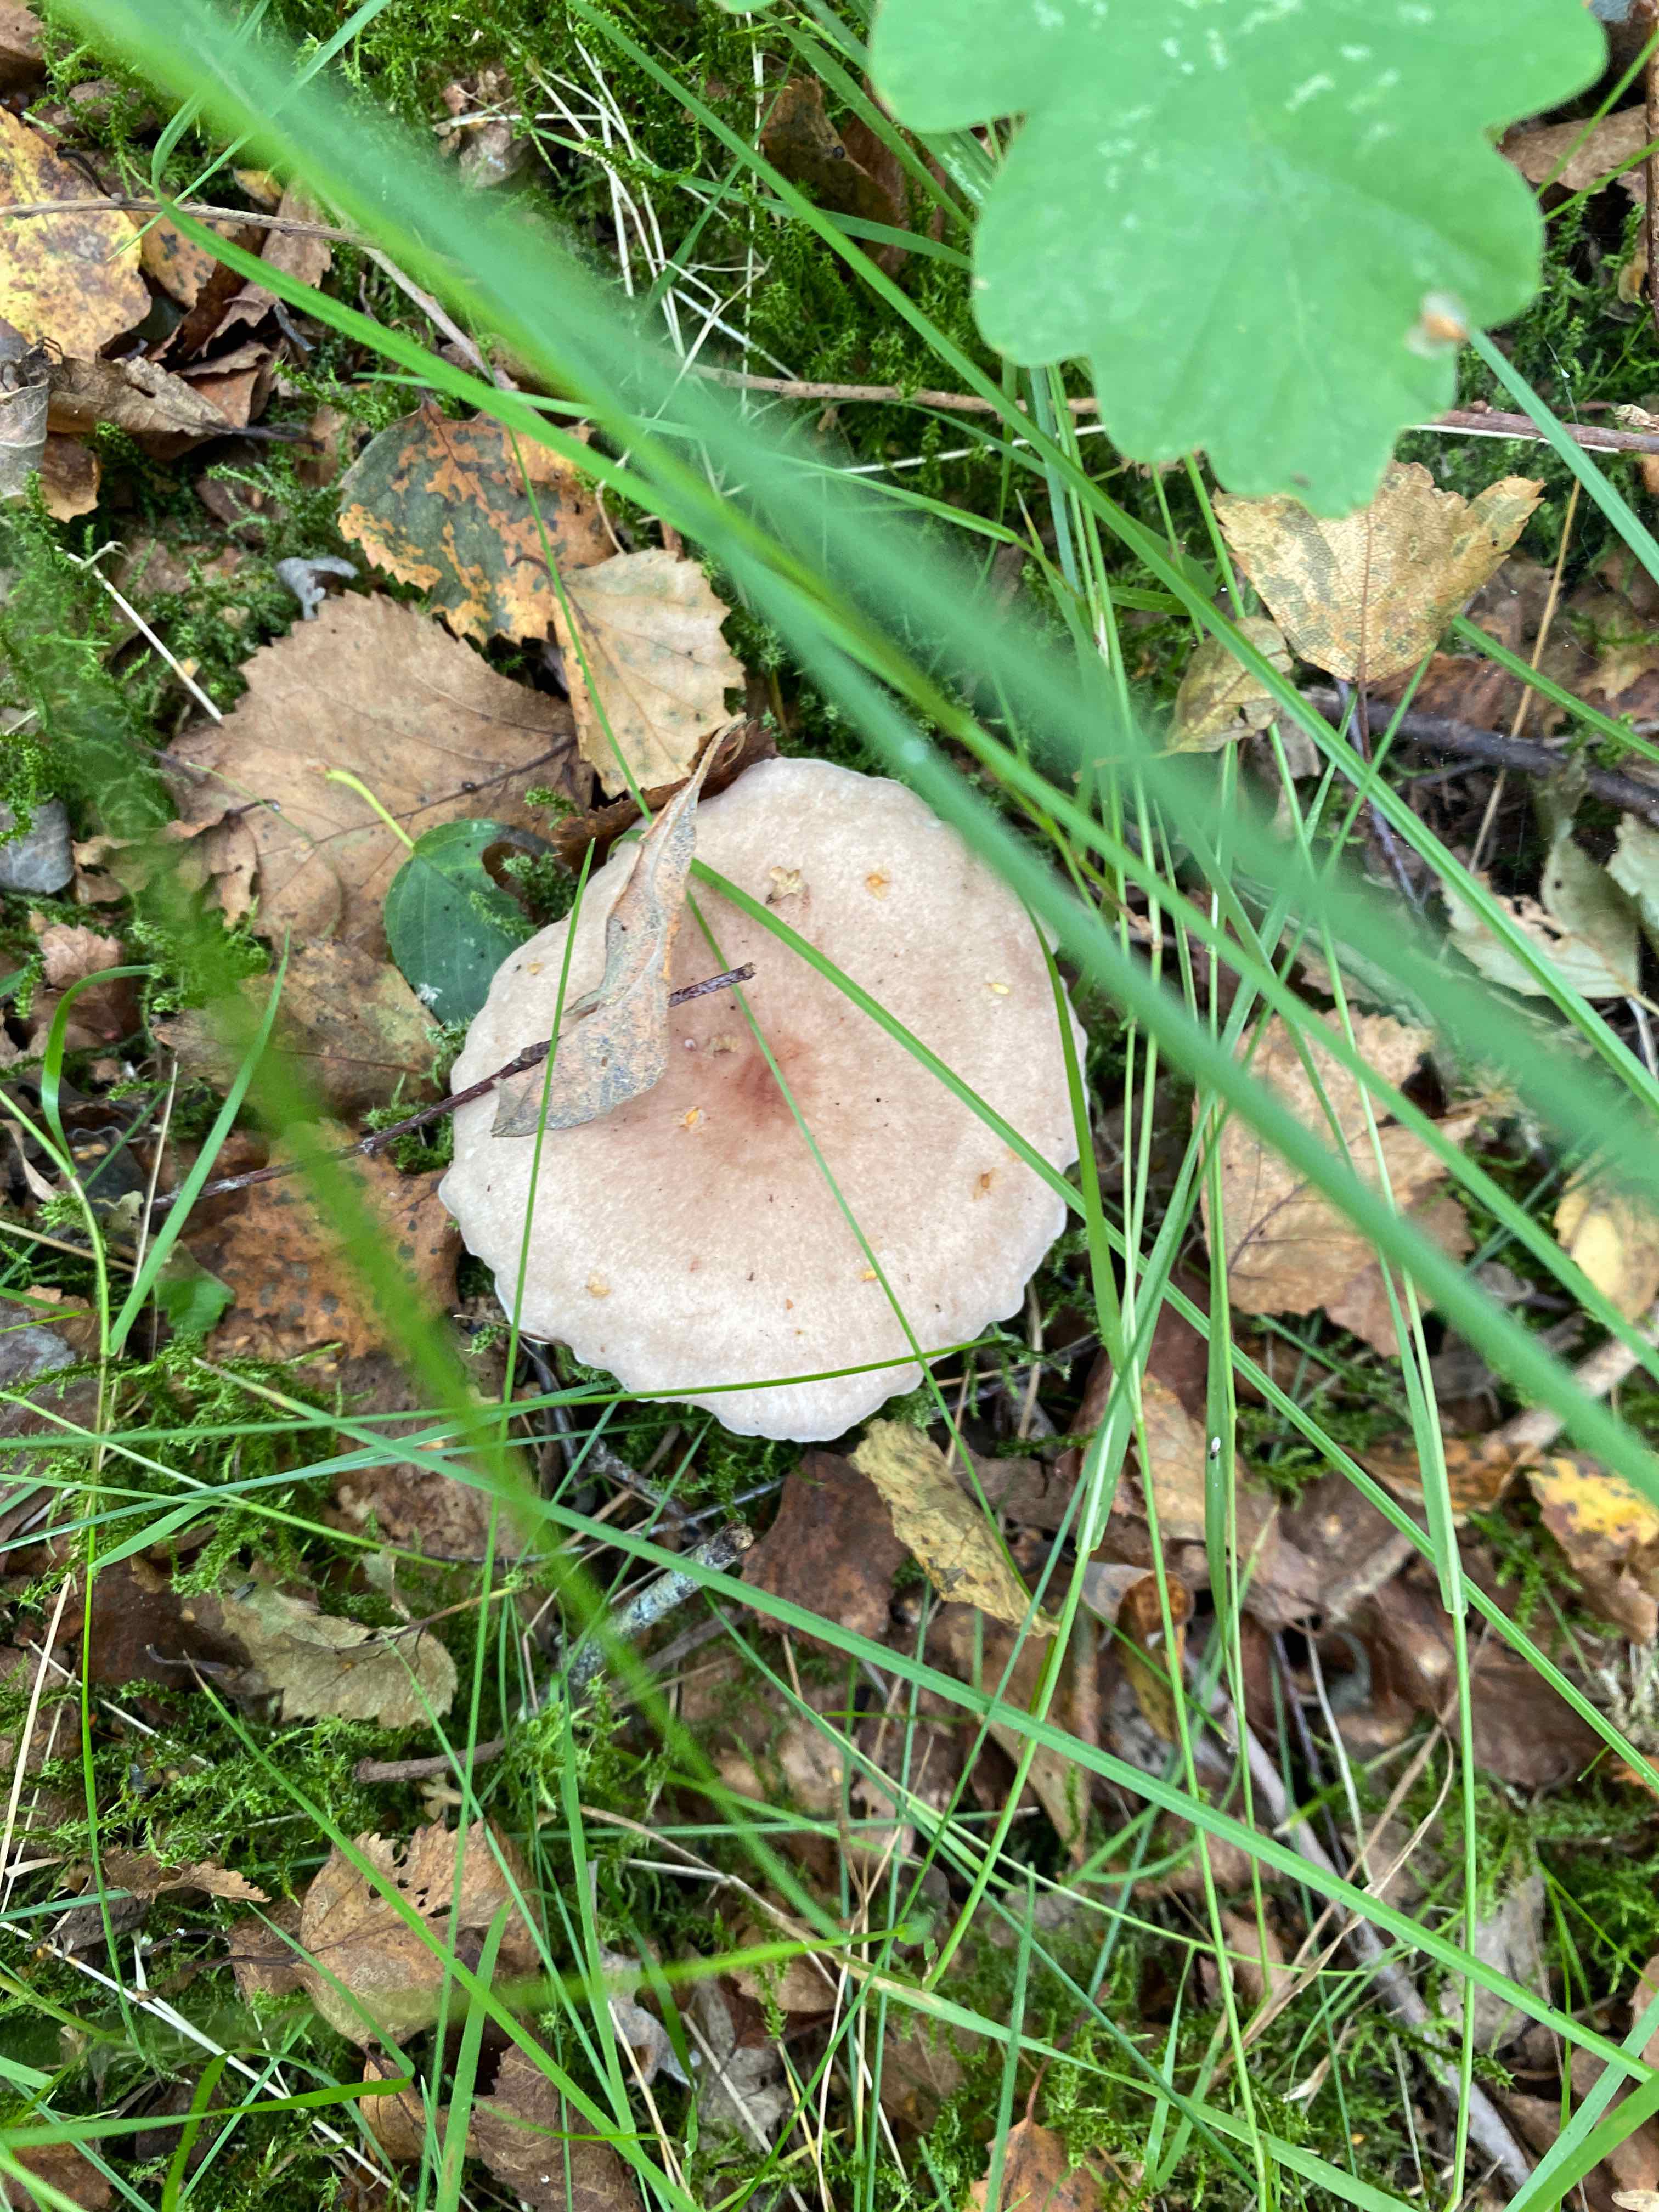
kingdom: Fungi
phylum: Basidiomycota
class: Agaricomycetes
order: Russulales
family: Russulaceae
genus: Lactarius
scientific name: Lactarius
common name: mælkehat
